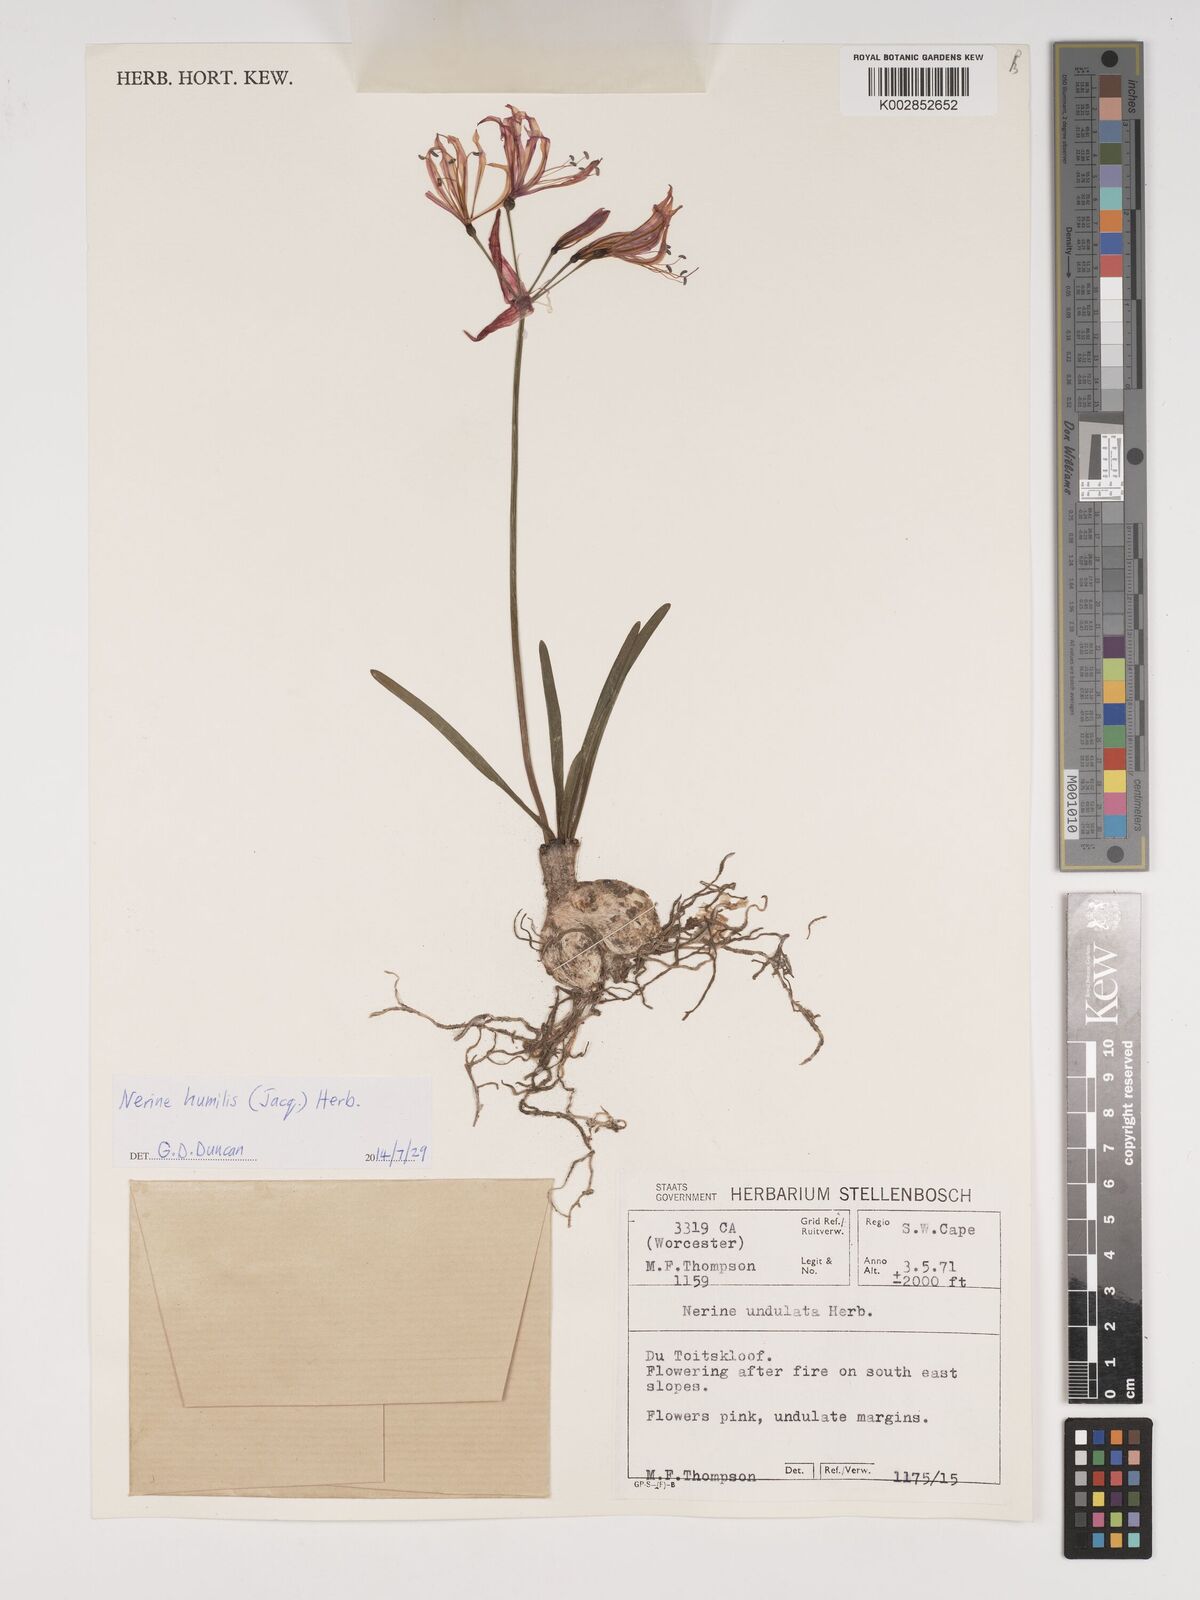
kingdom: Plantae
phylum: Tracheophyta
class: Liliopsida
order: Asparagales
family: Amaryllidaceae
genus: Nerine
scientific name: Nerine humilis
